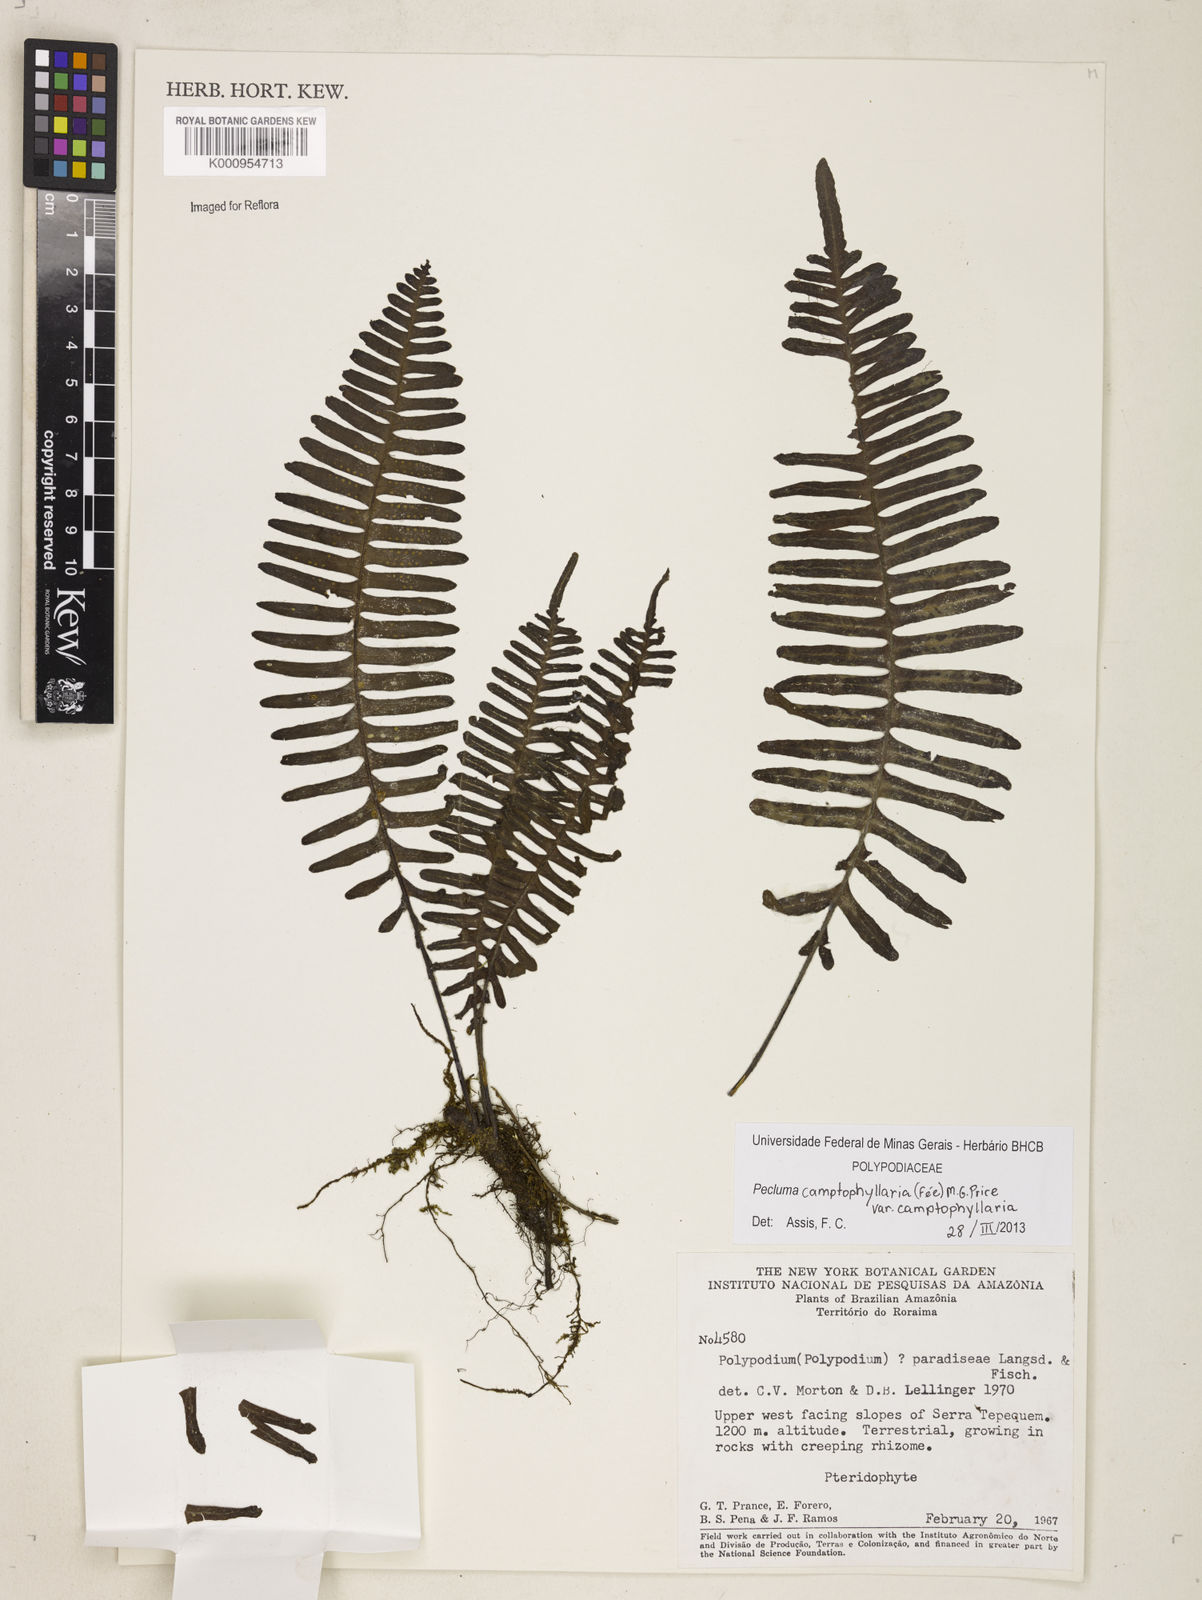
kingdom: Plantae
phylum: Tracheophyta
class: Polypodiopsida
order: Polypodiales
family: Polypodiaceae
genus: Pecluma
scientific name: Pecluma
